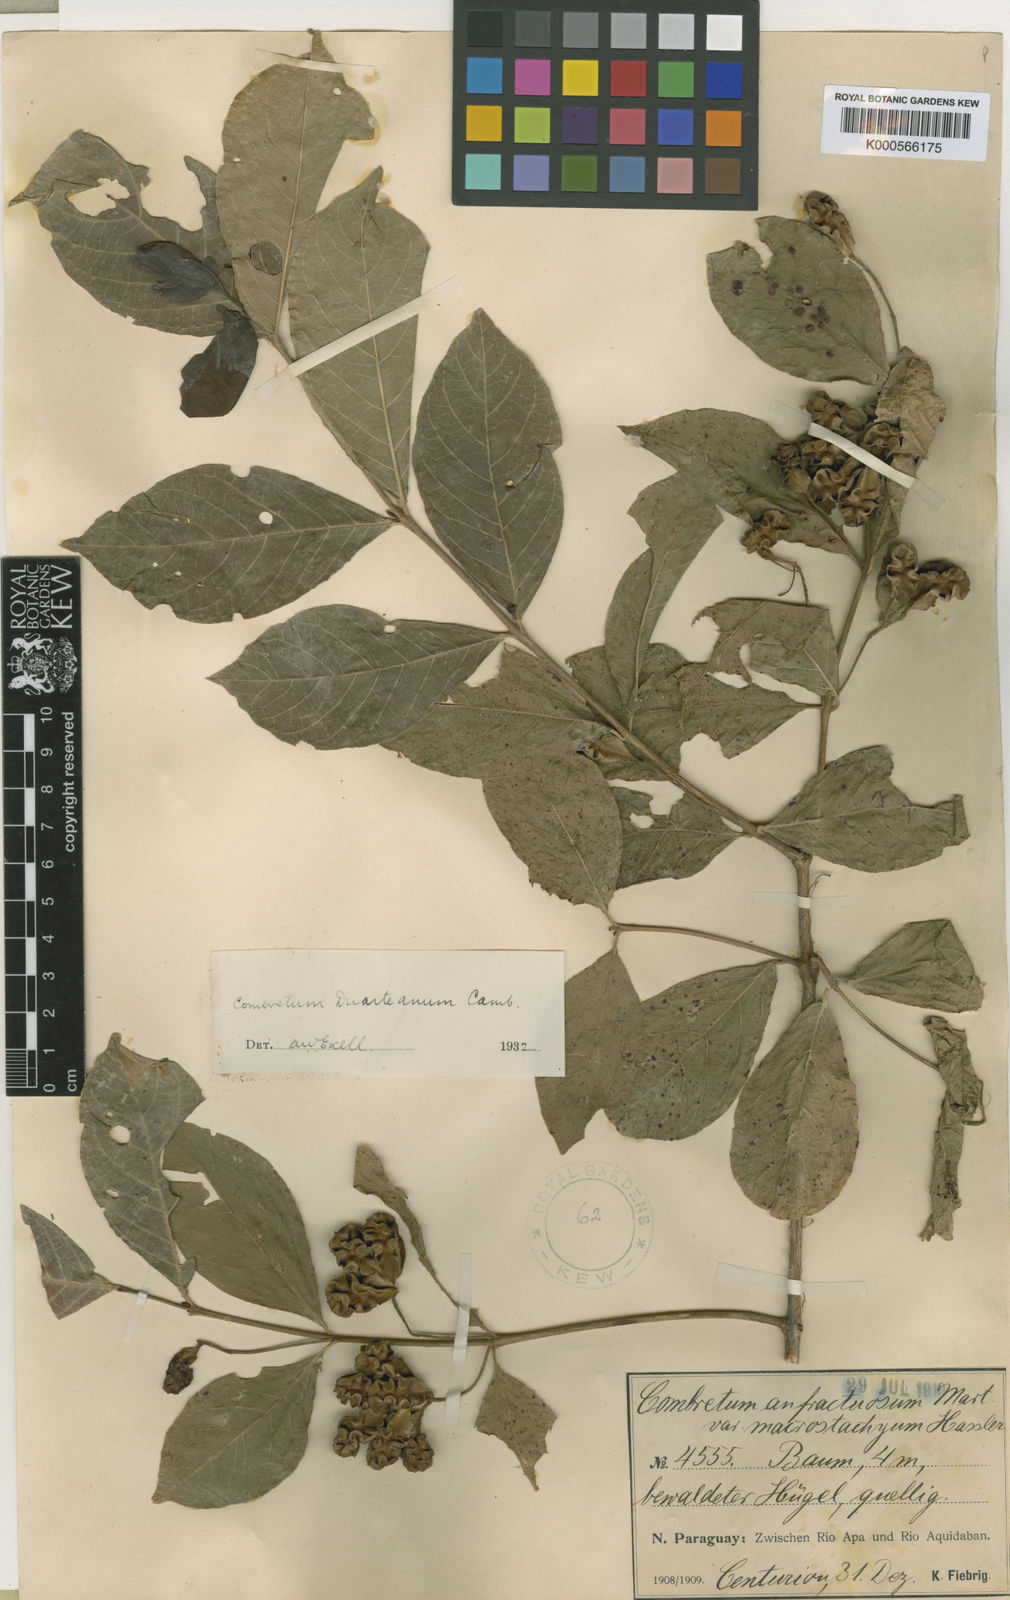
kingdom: Plantae
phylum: Tracheophyta
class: Magnoliopsida
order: Myrtales
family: Combretaceae
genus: Combretum
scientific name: Combretum duarteanum
